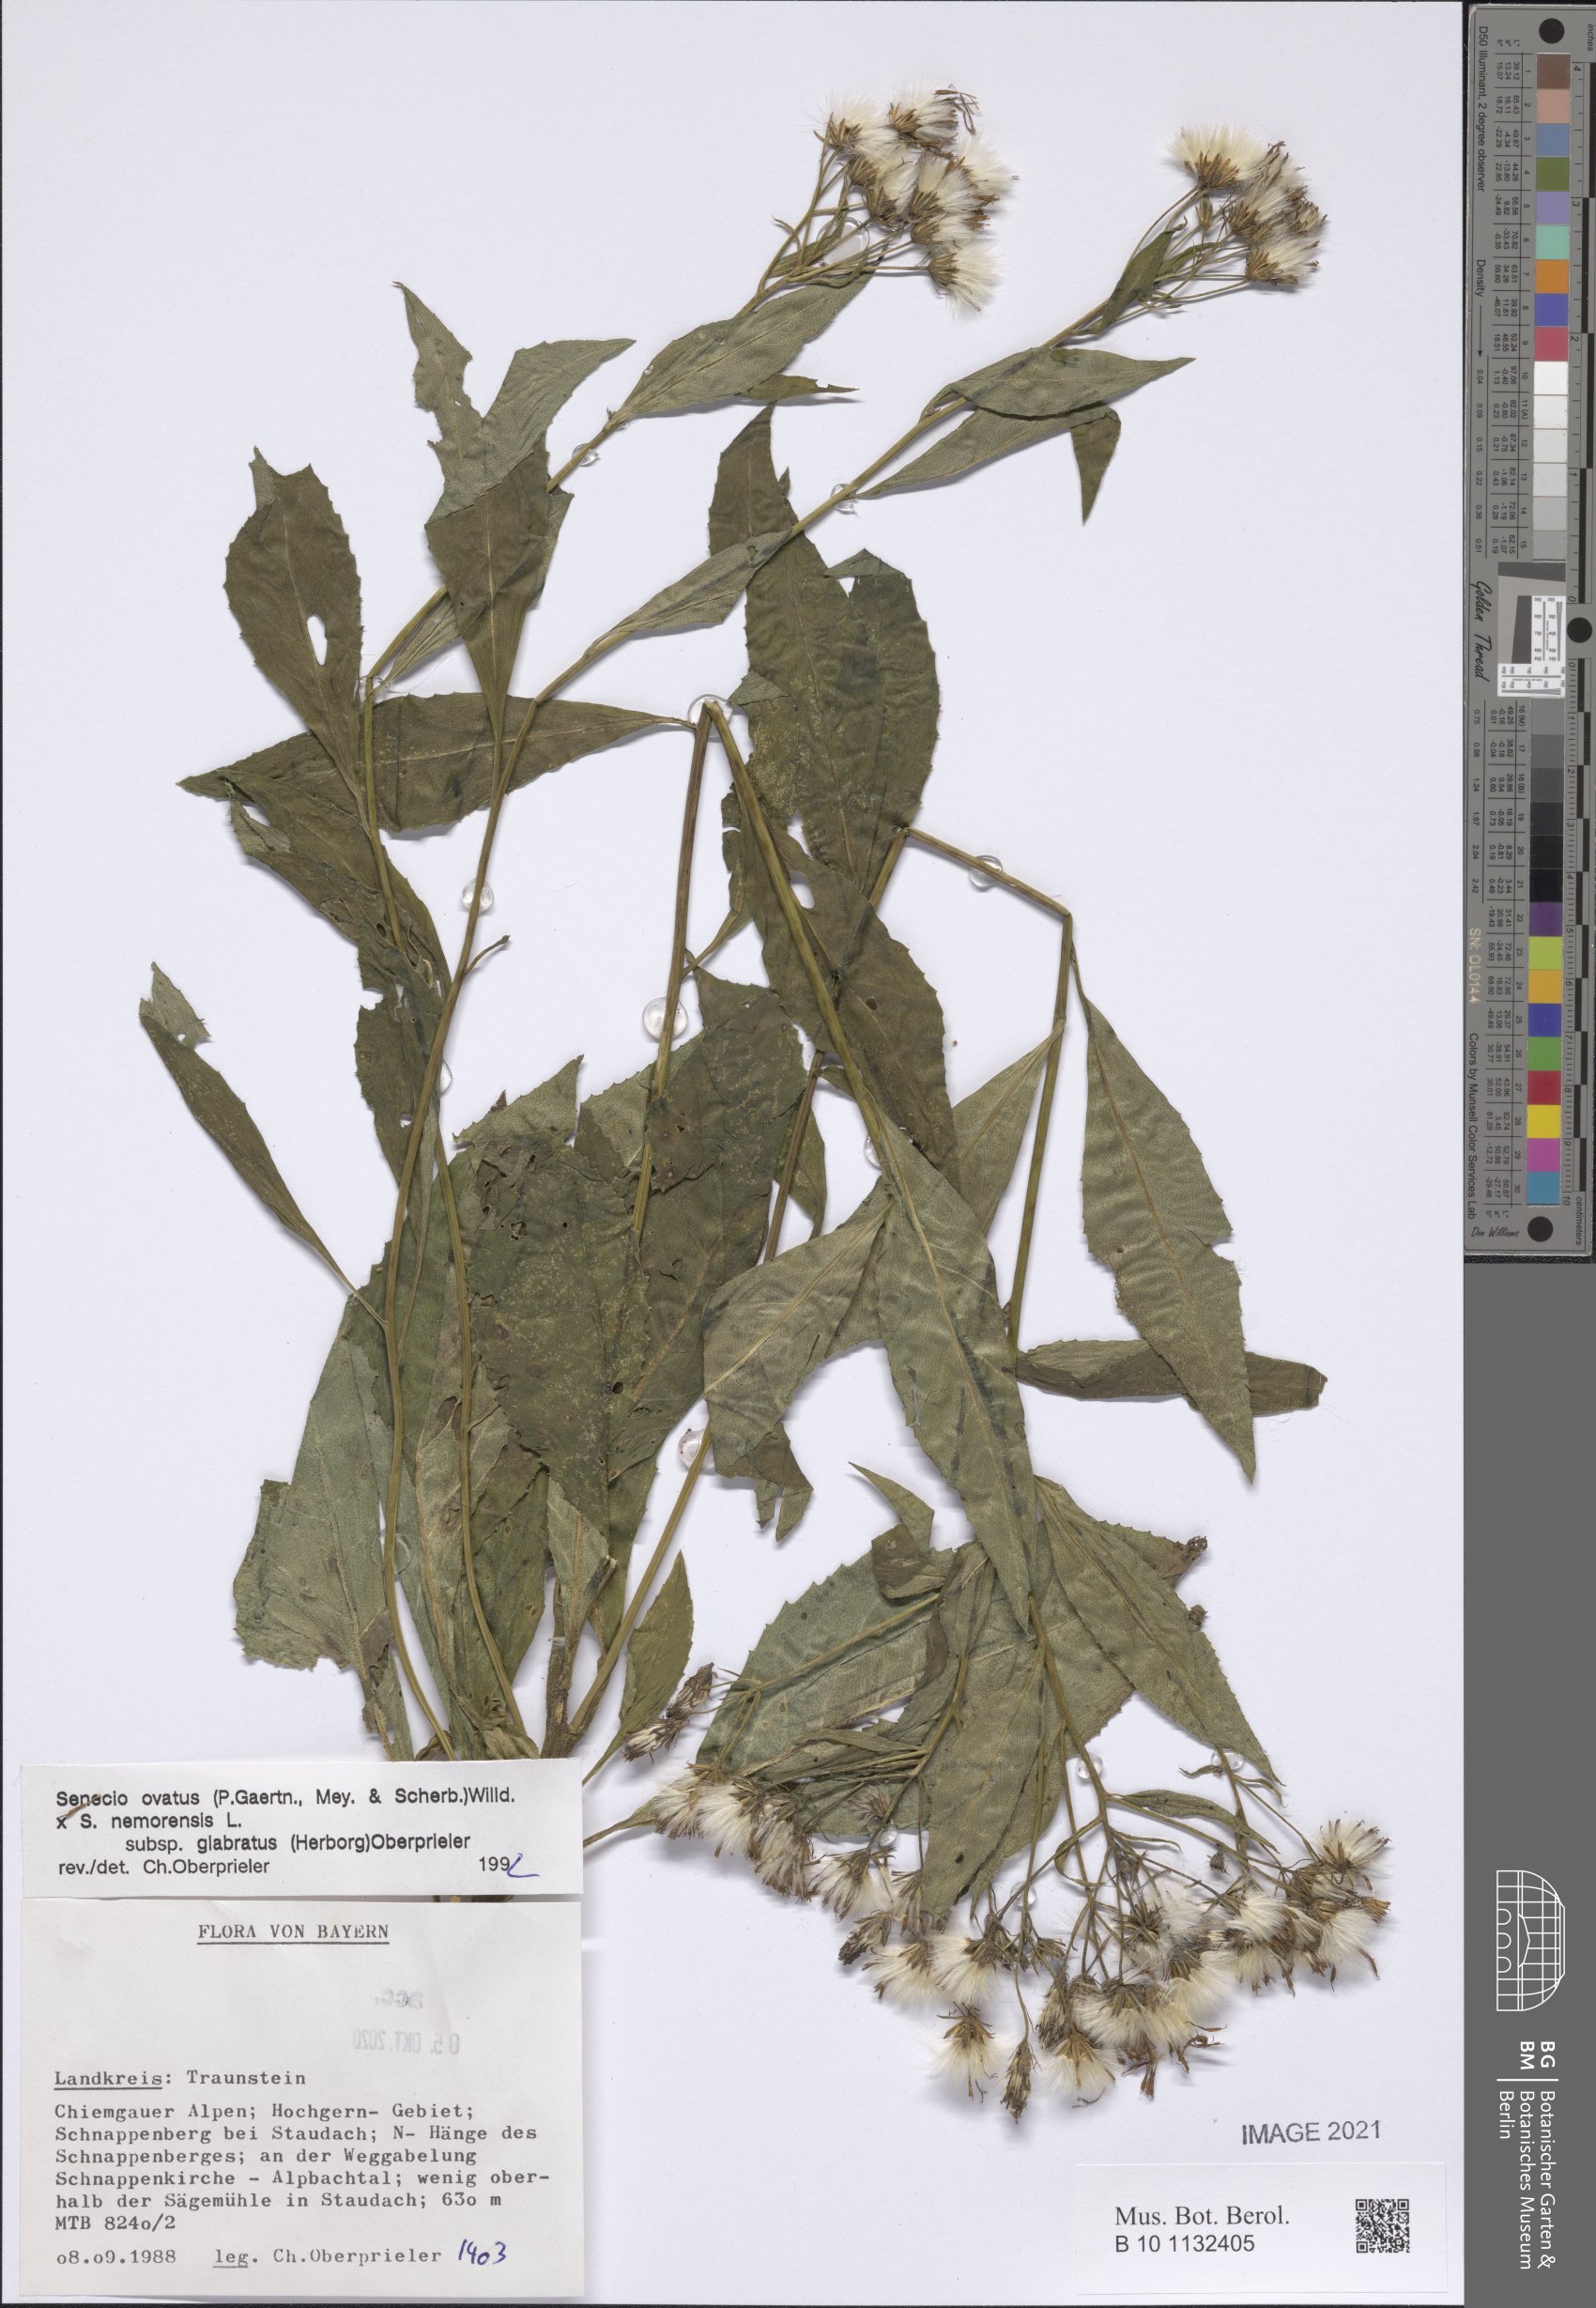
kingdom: Plantae
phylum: Tracheophyta
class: Magnoliopsida
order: Asterales
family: Asteraceae
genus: Senecio
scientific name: Senecio ovatus
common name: Wood ragwort
